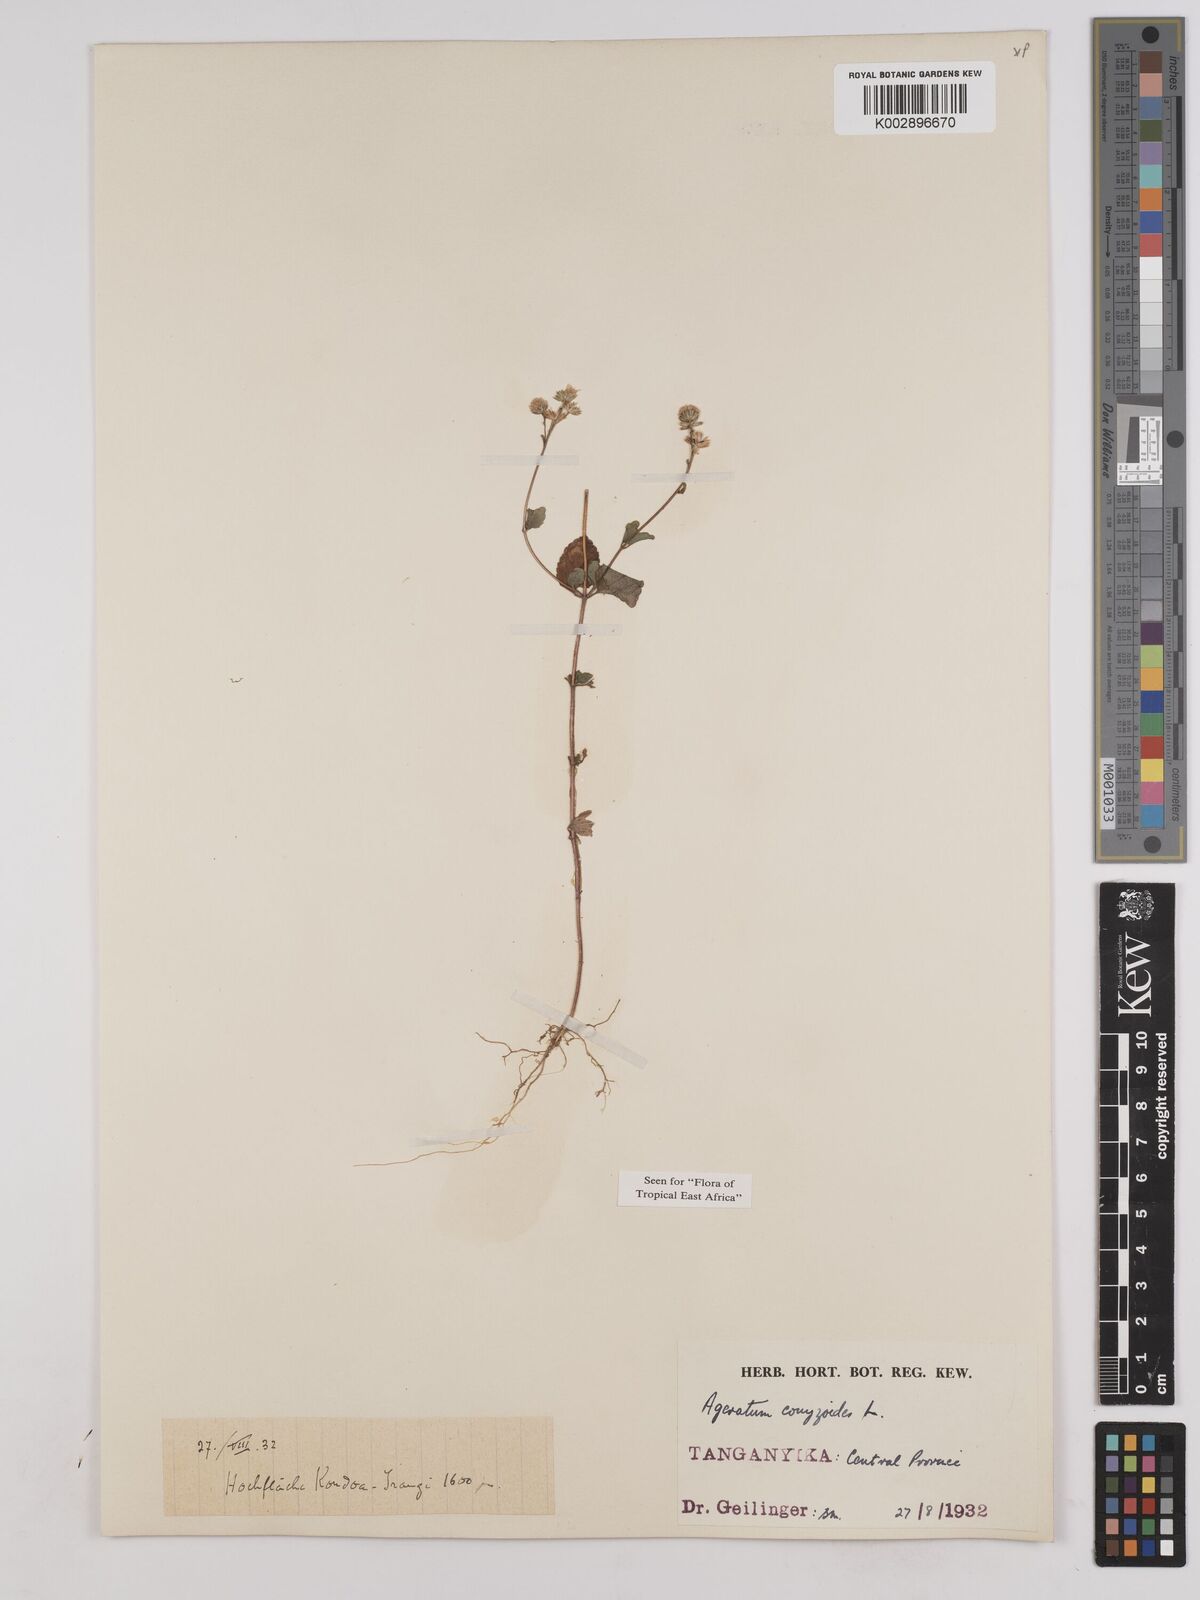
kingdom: Plantae
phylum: Tracheophyta
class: Magnoliopsida
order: Asterales
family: Asteraceae
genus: Ageratum
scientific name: Ageratum conyzoides
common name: Tropical whiteweed
